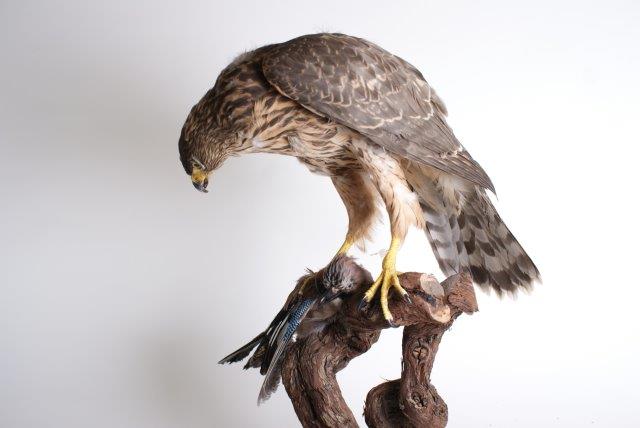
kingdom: Animalia
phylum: Chordata
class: Aves
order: Accipitriformes
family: Accipitridae
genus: Accipiter
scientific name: Accipiter gentilis
